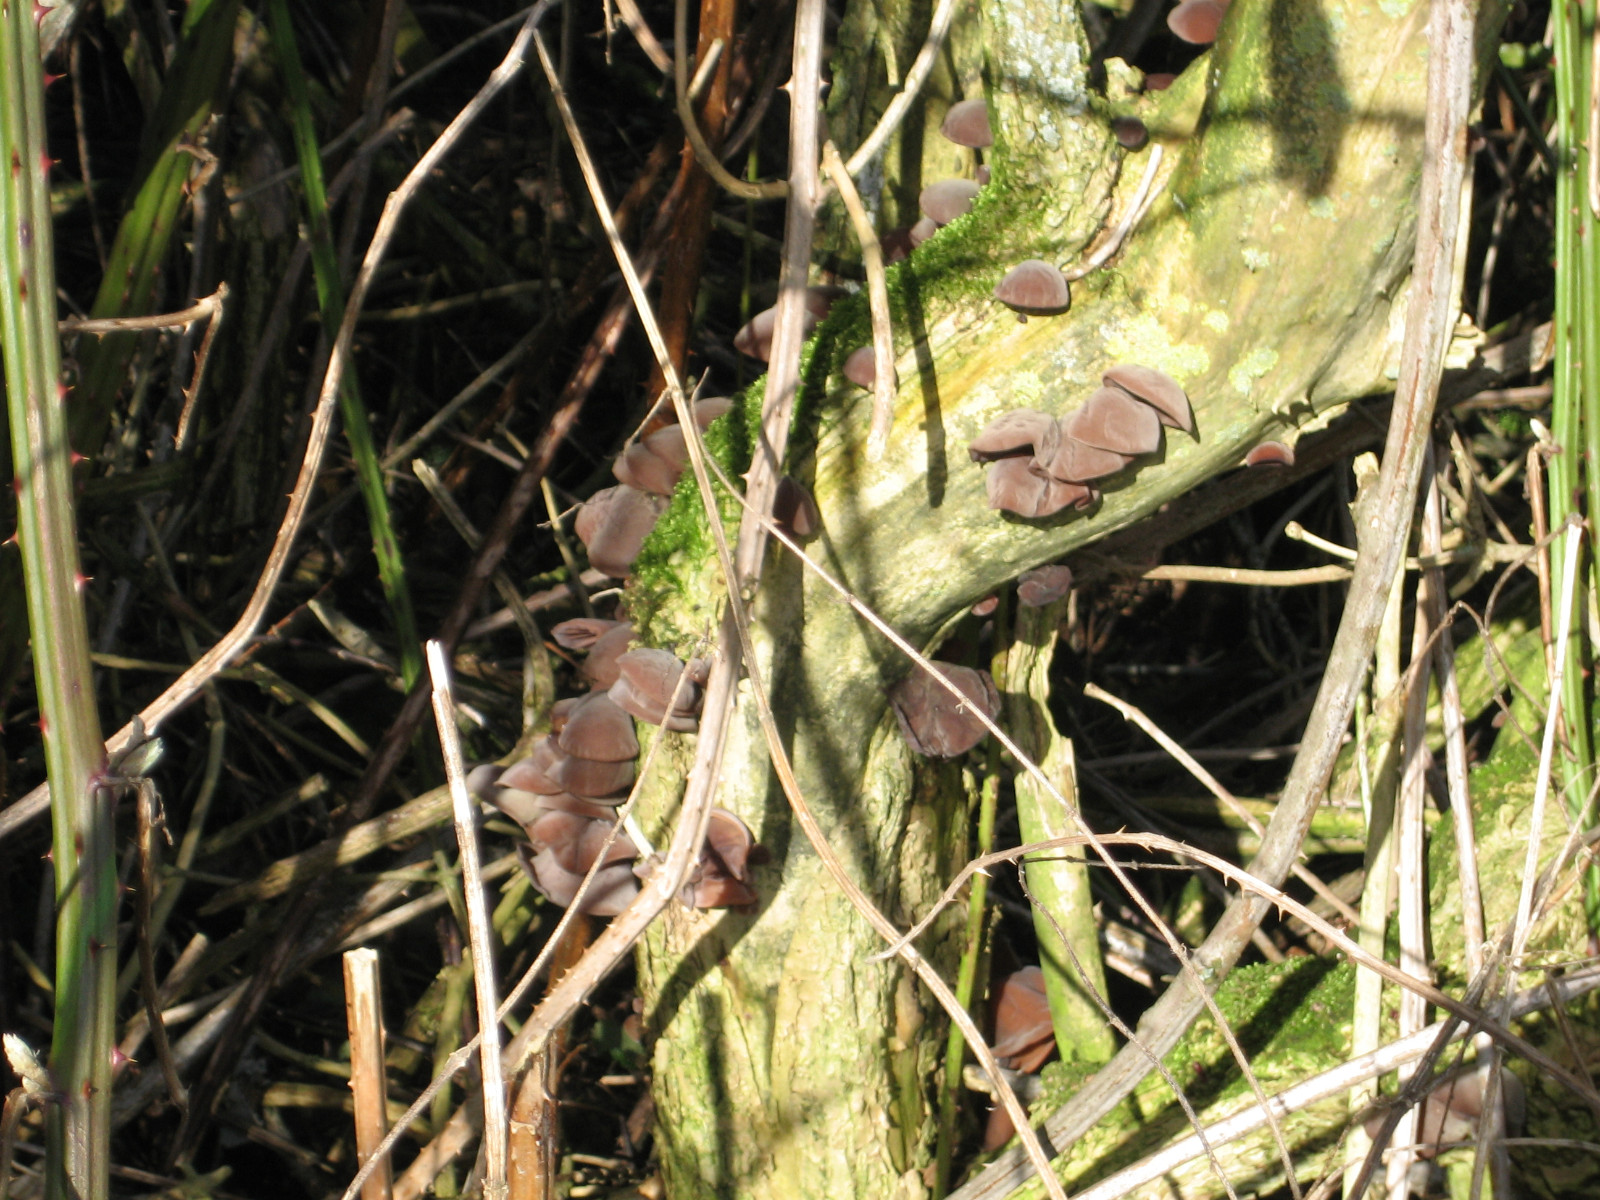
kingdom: Fungi
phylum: Basidiomycota
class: Agaricomycetes
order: Auriculariales
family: Auriculariaceae
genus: Auricularia
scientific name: Auricularia auricula-judae
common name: almindelig judasøre
